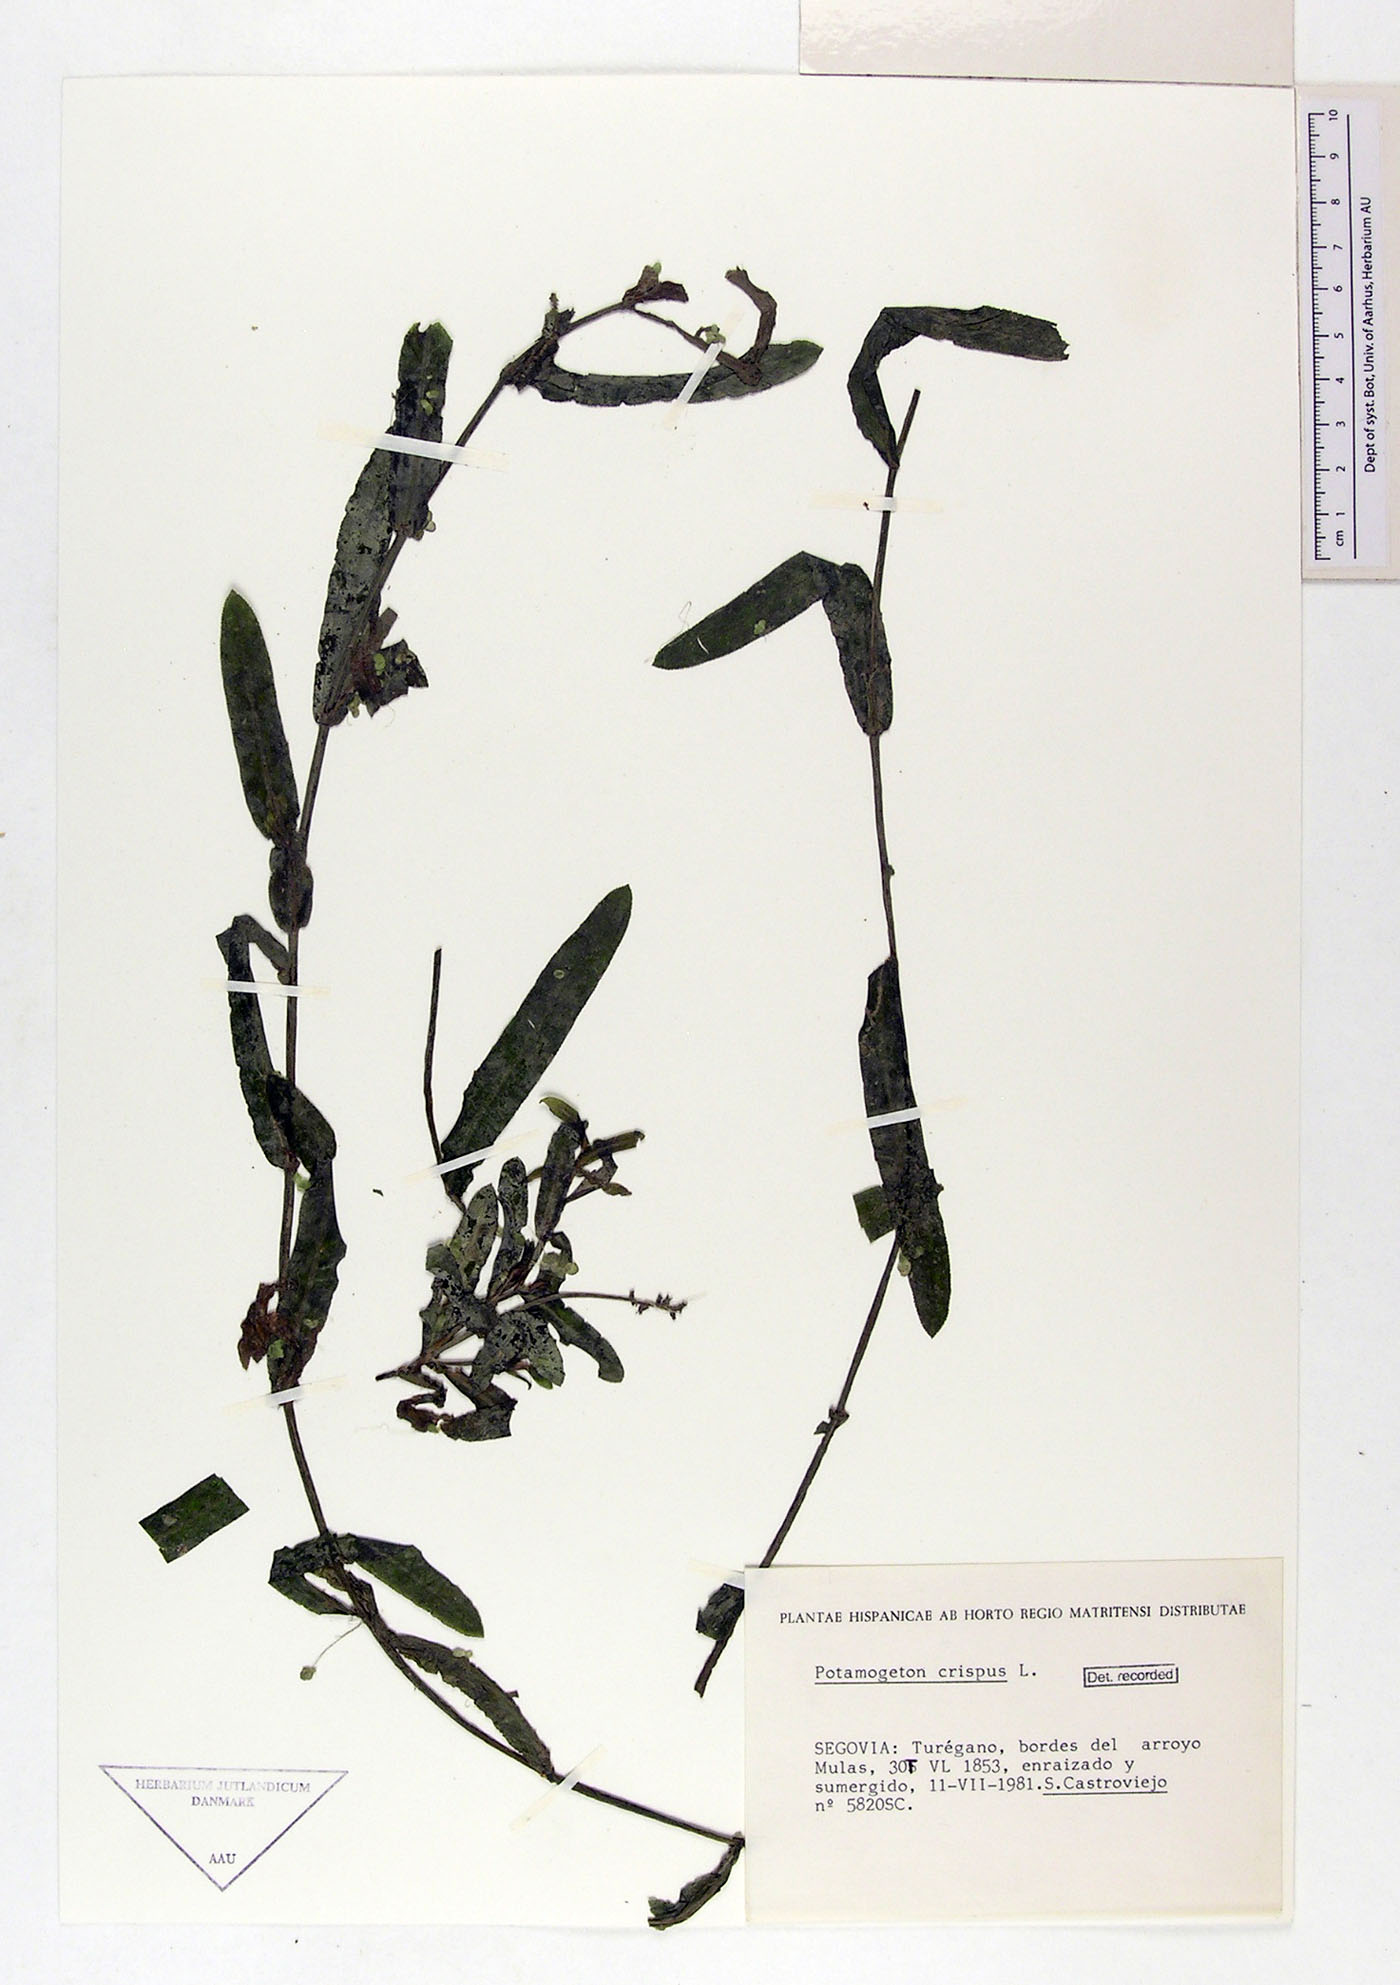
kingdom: Plantae
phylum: Tracheophyta
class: Liliopsida
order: Alismatales
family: Potamogetonaceae
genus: Potamogeton
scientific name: Potamogeton crispus
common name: Curled pondweed
